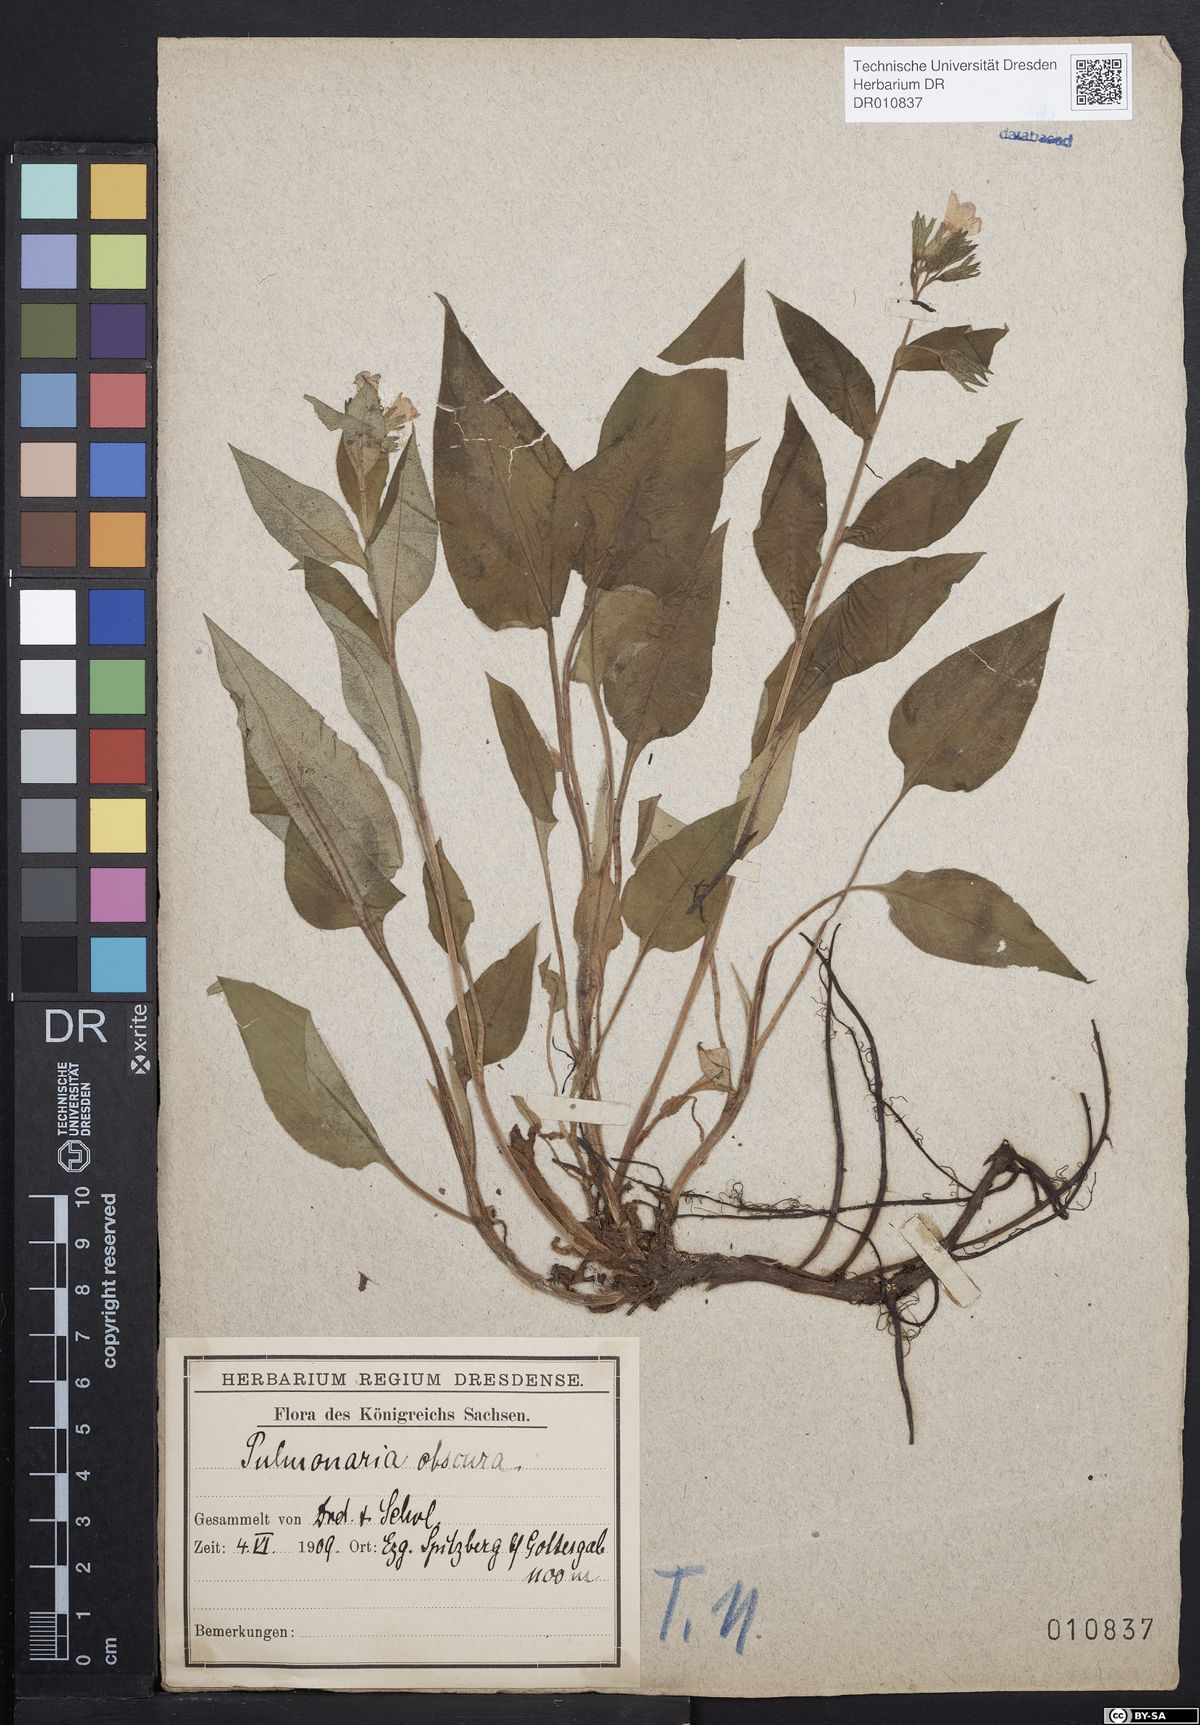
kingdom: Plantae
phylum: Tracheophyta
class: Magnoliopsida
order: Boraginales
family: Boraginaceae
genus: Pulmonaria
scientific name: Pulmonaria obscura
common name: Suffolk lungwort
